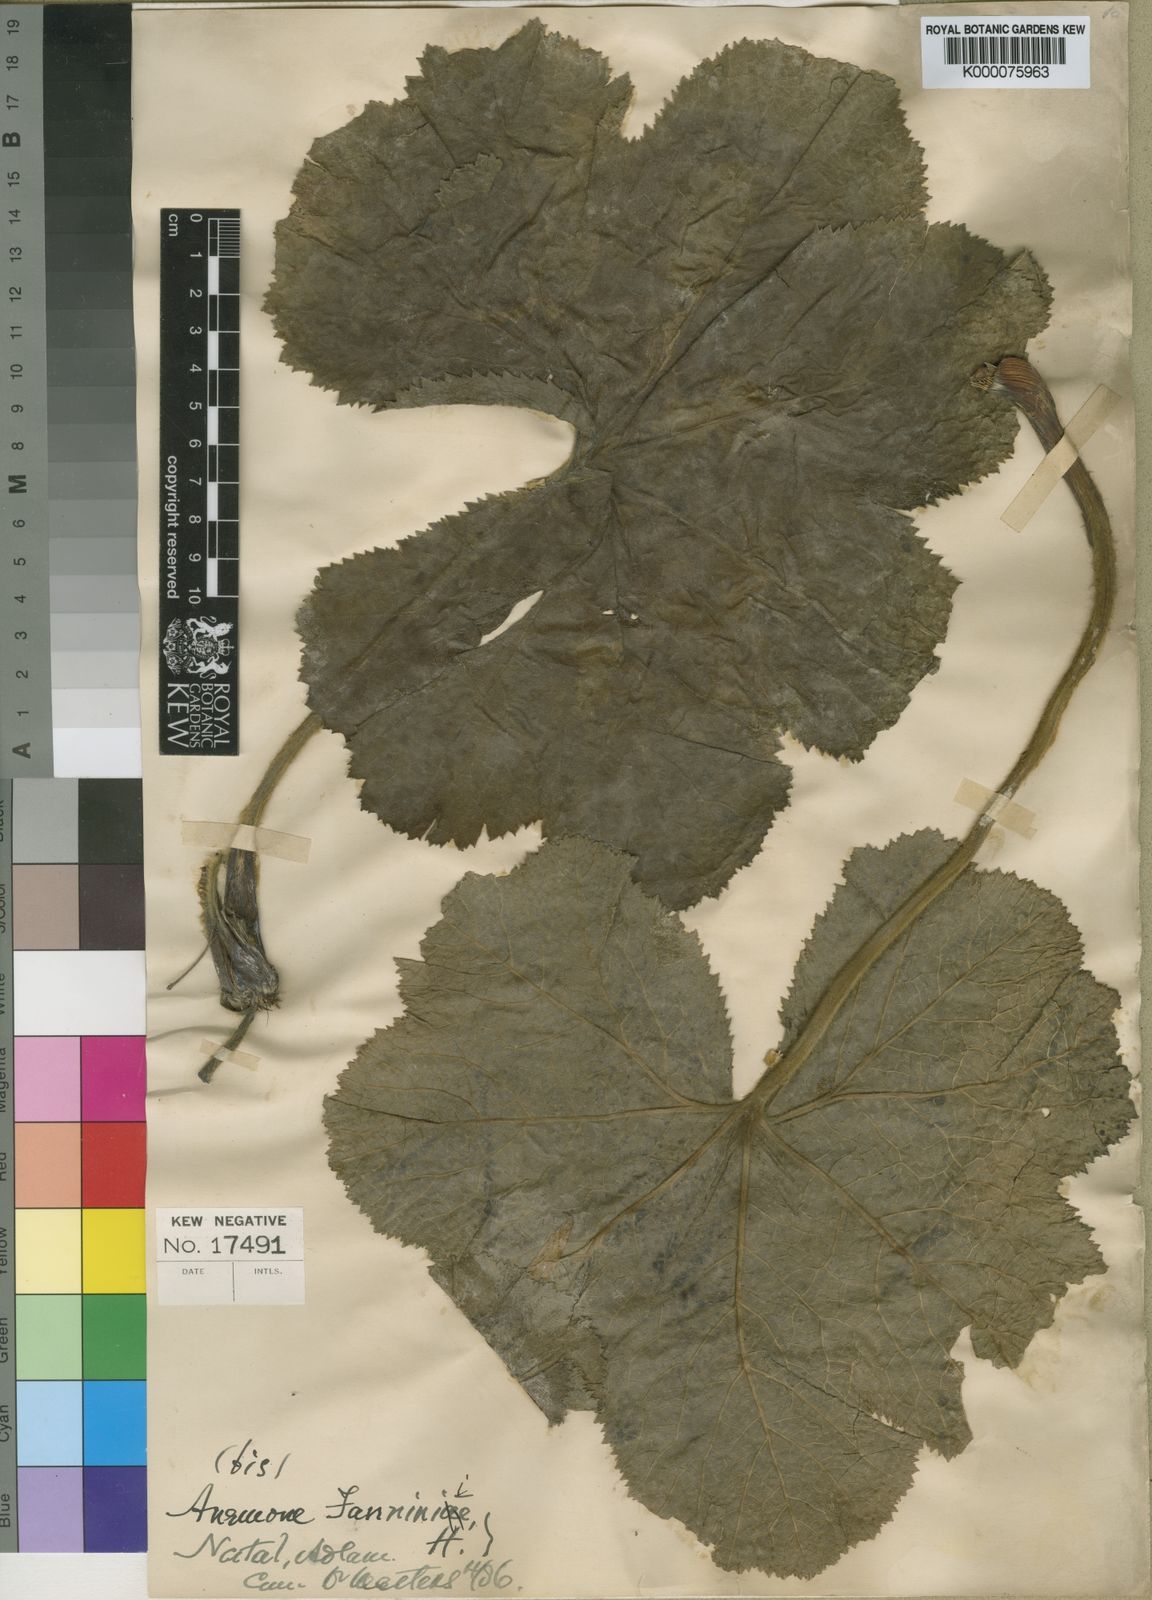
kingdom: Plantae
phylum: Tracheophyta
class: Magnoliopsida
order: Ranunculales
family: Ranunculaceae
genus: Knowltonia
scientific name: Knowltonia fanninii
